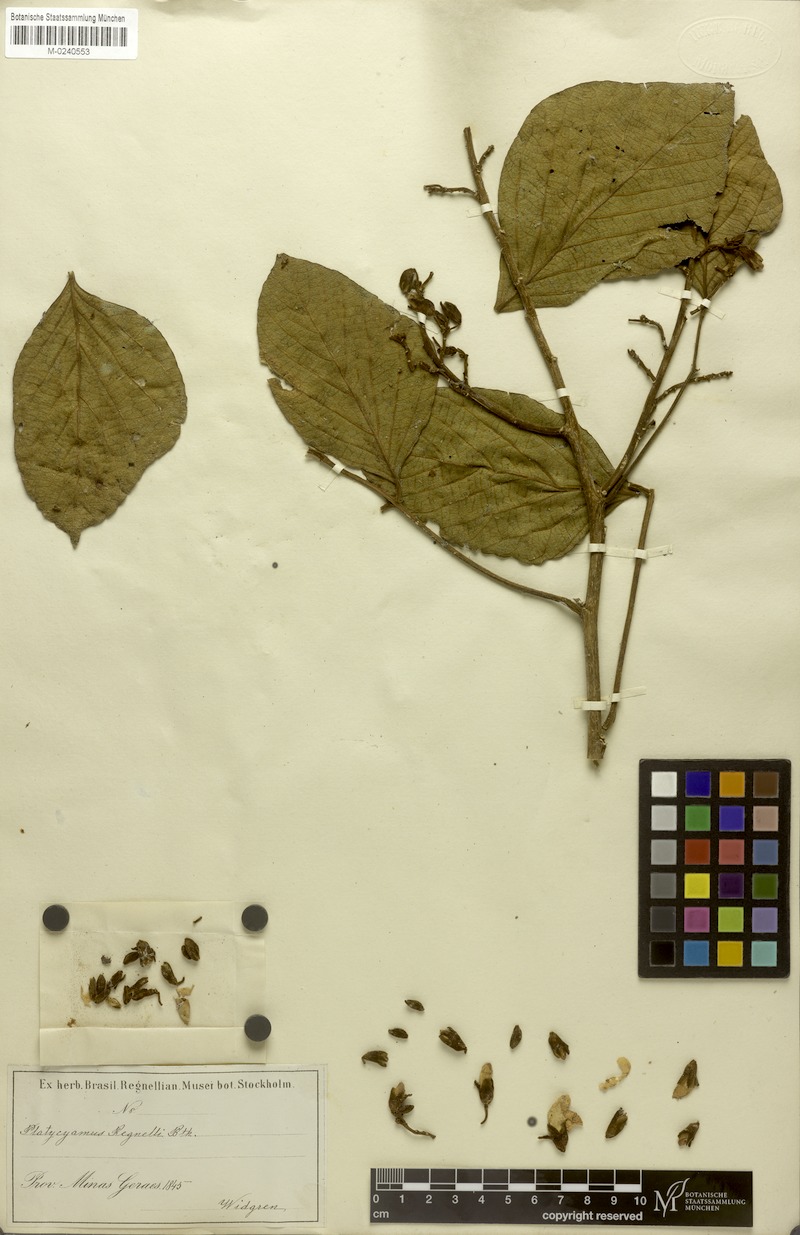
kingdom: Plantae
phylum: Tracheophyta
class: Magnoliopsida
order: Fabales
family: Fabaceae
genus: Platycyamus
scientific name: Platycyamus regnellii
